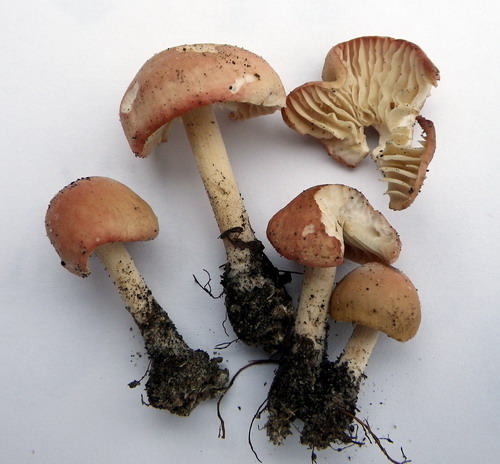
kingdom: Fungi
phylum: Basidiomycota
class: Agaricomycetes
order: Agaricales
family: Marasmiaceae
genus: Marasmius
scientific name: Marasmius oreades
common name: elledans-bruskhat
